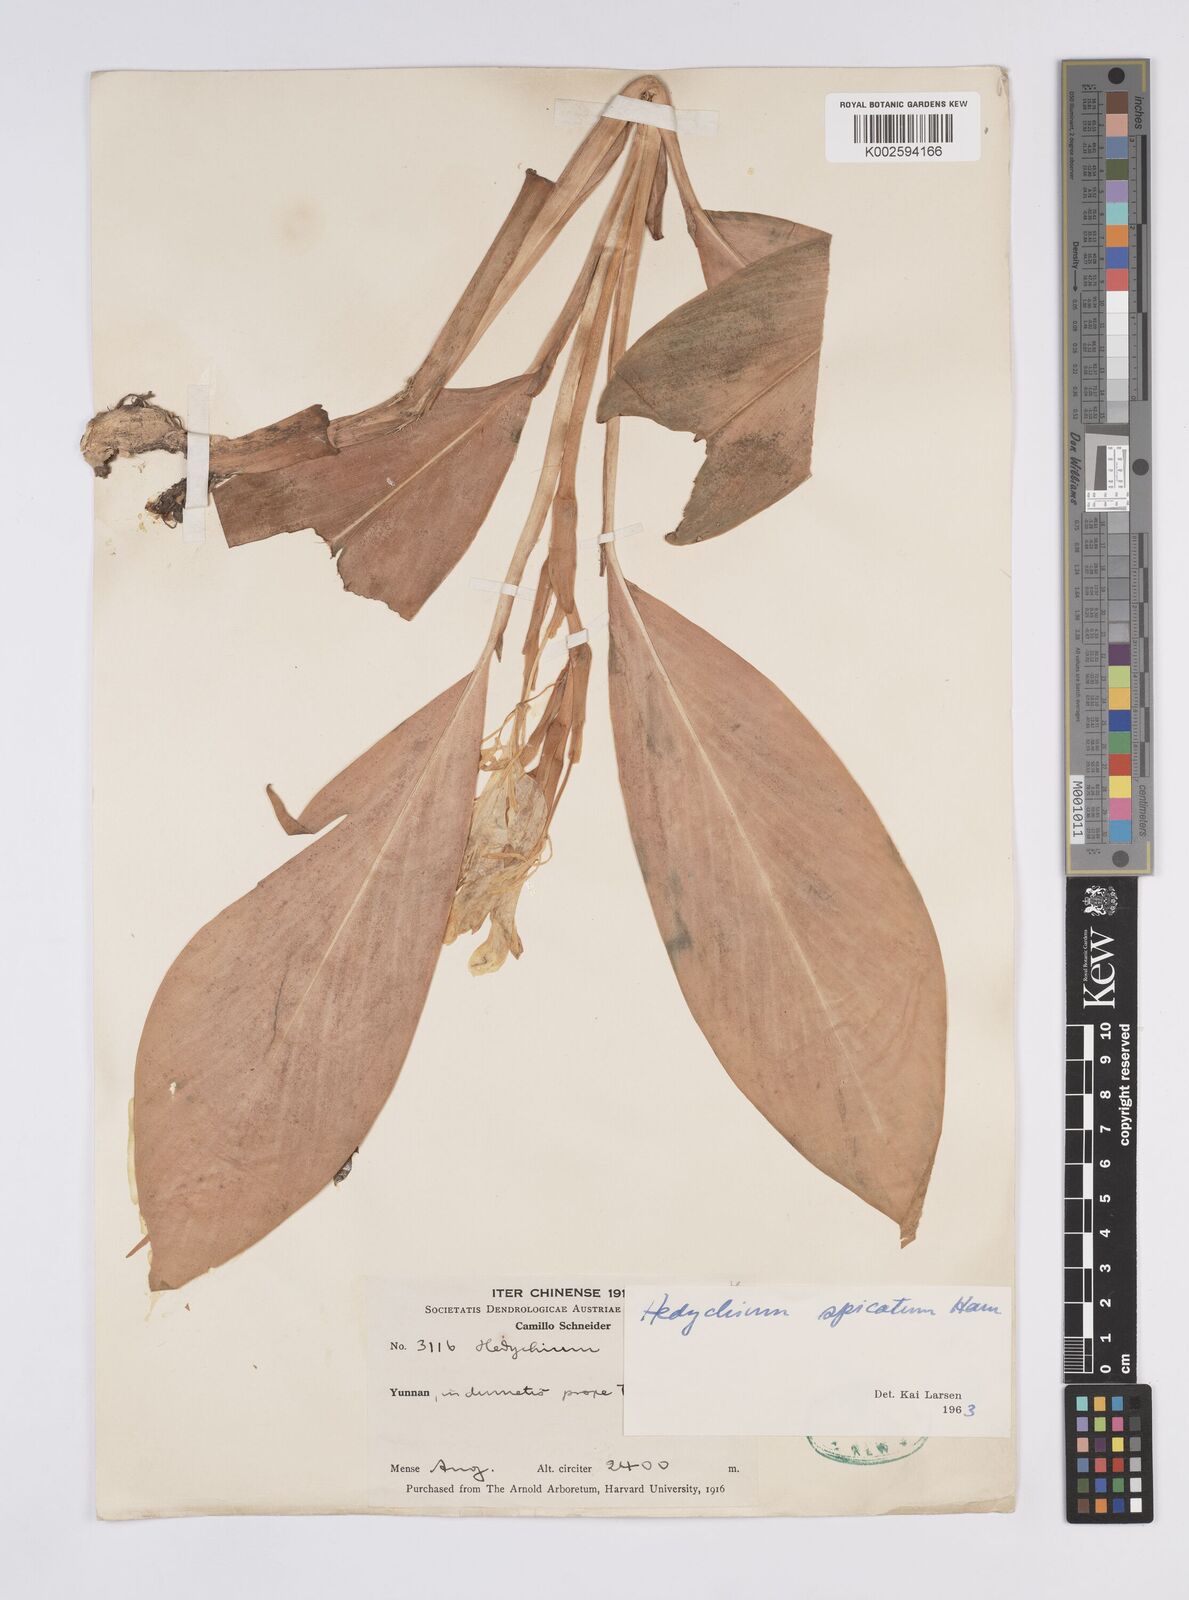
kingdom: Plantae
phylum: Tracheophyta
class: Liliopsida
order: Zingiberales
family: Zingiberaceae
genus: Hedychium
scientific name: Hedychium spicatum
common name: Spiked ginger-lily
